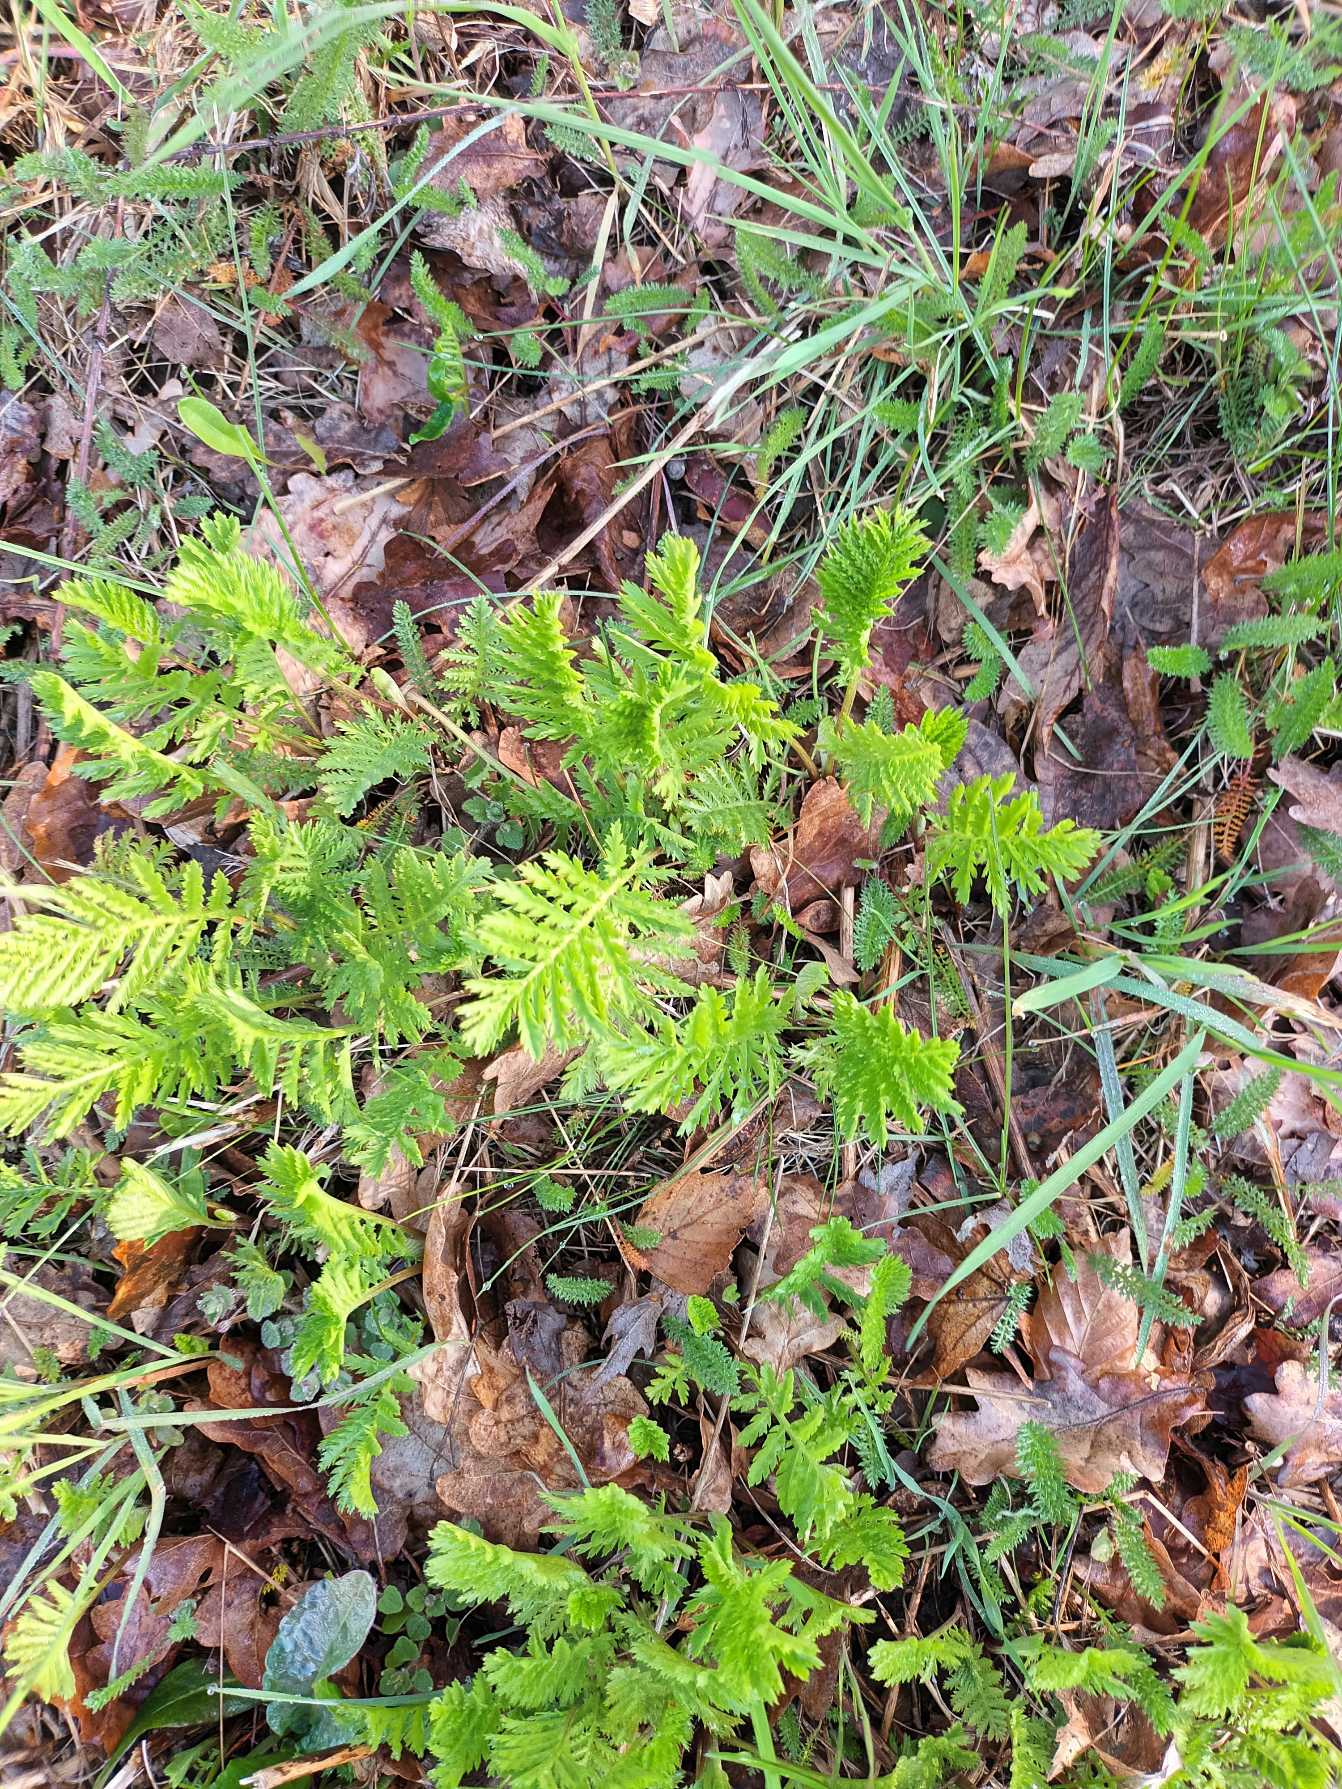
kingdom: Plantae
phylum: Tracheophyta
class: Magnoliopsida
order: Asterales
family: Asteraceae
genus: Tanacetum
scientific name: Tanacetum vulgare
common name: Rejnfan
